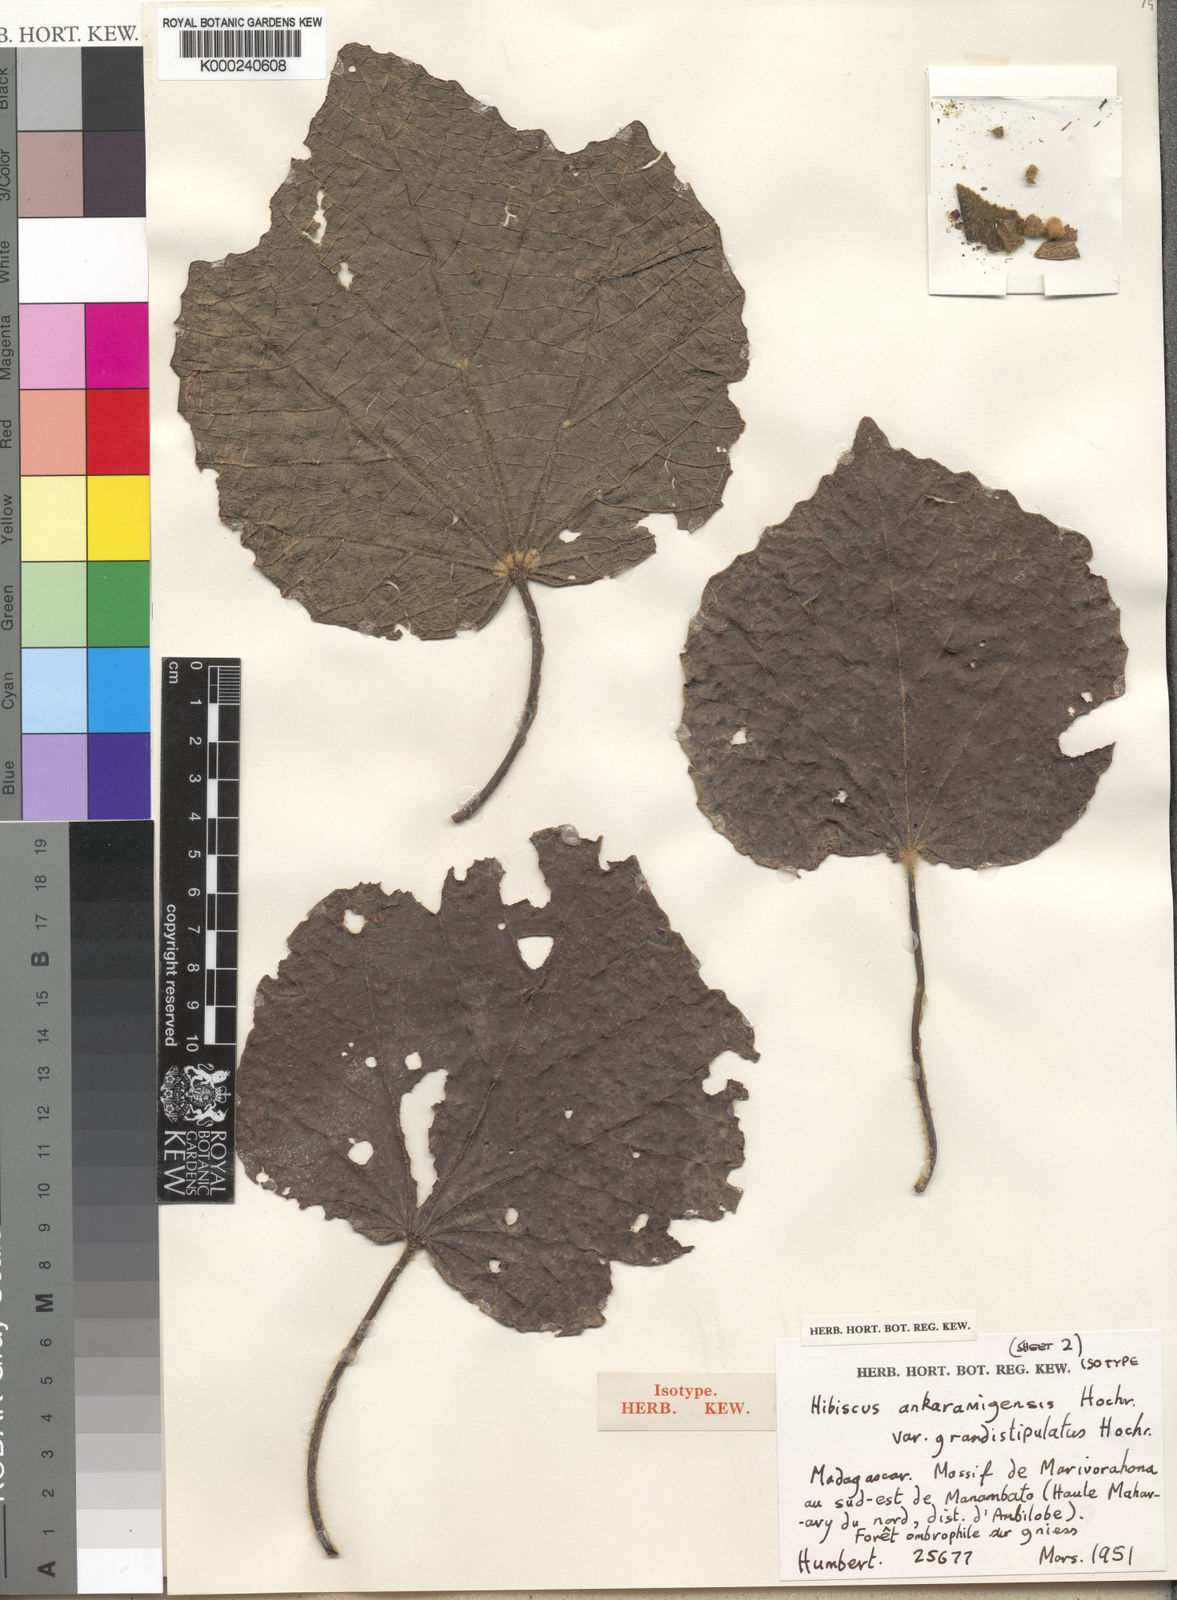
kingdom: Plantae
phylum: Tracheophyta
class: Magnoliopsida
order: Malvales
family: Malvaceae
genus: Hibiscus
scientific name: Hibiscus ankaramyensis
